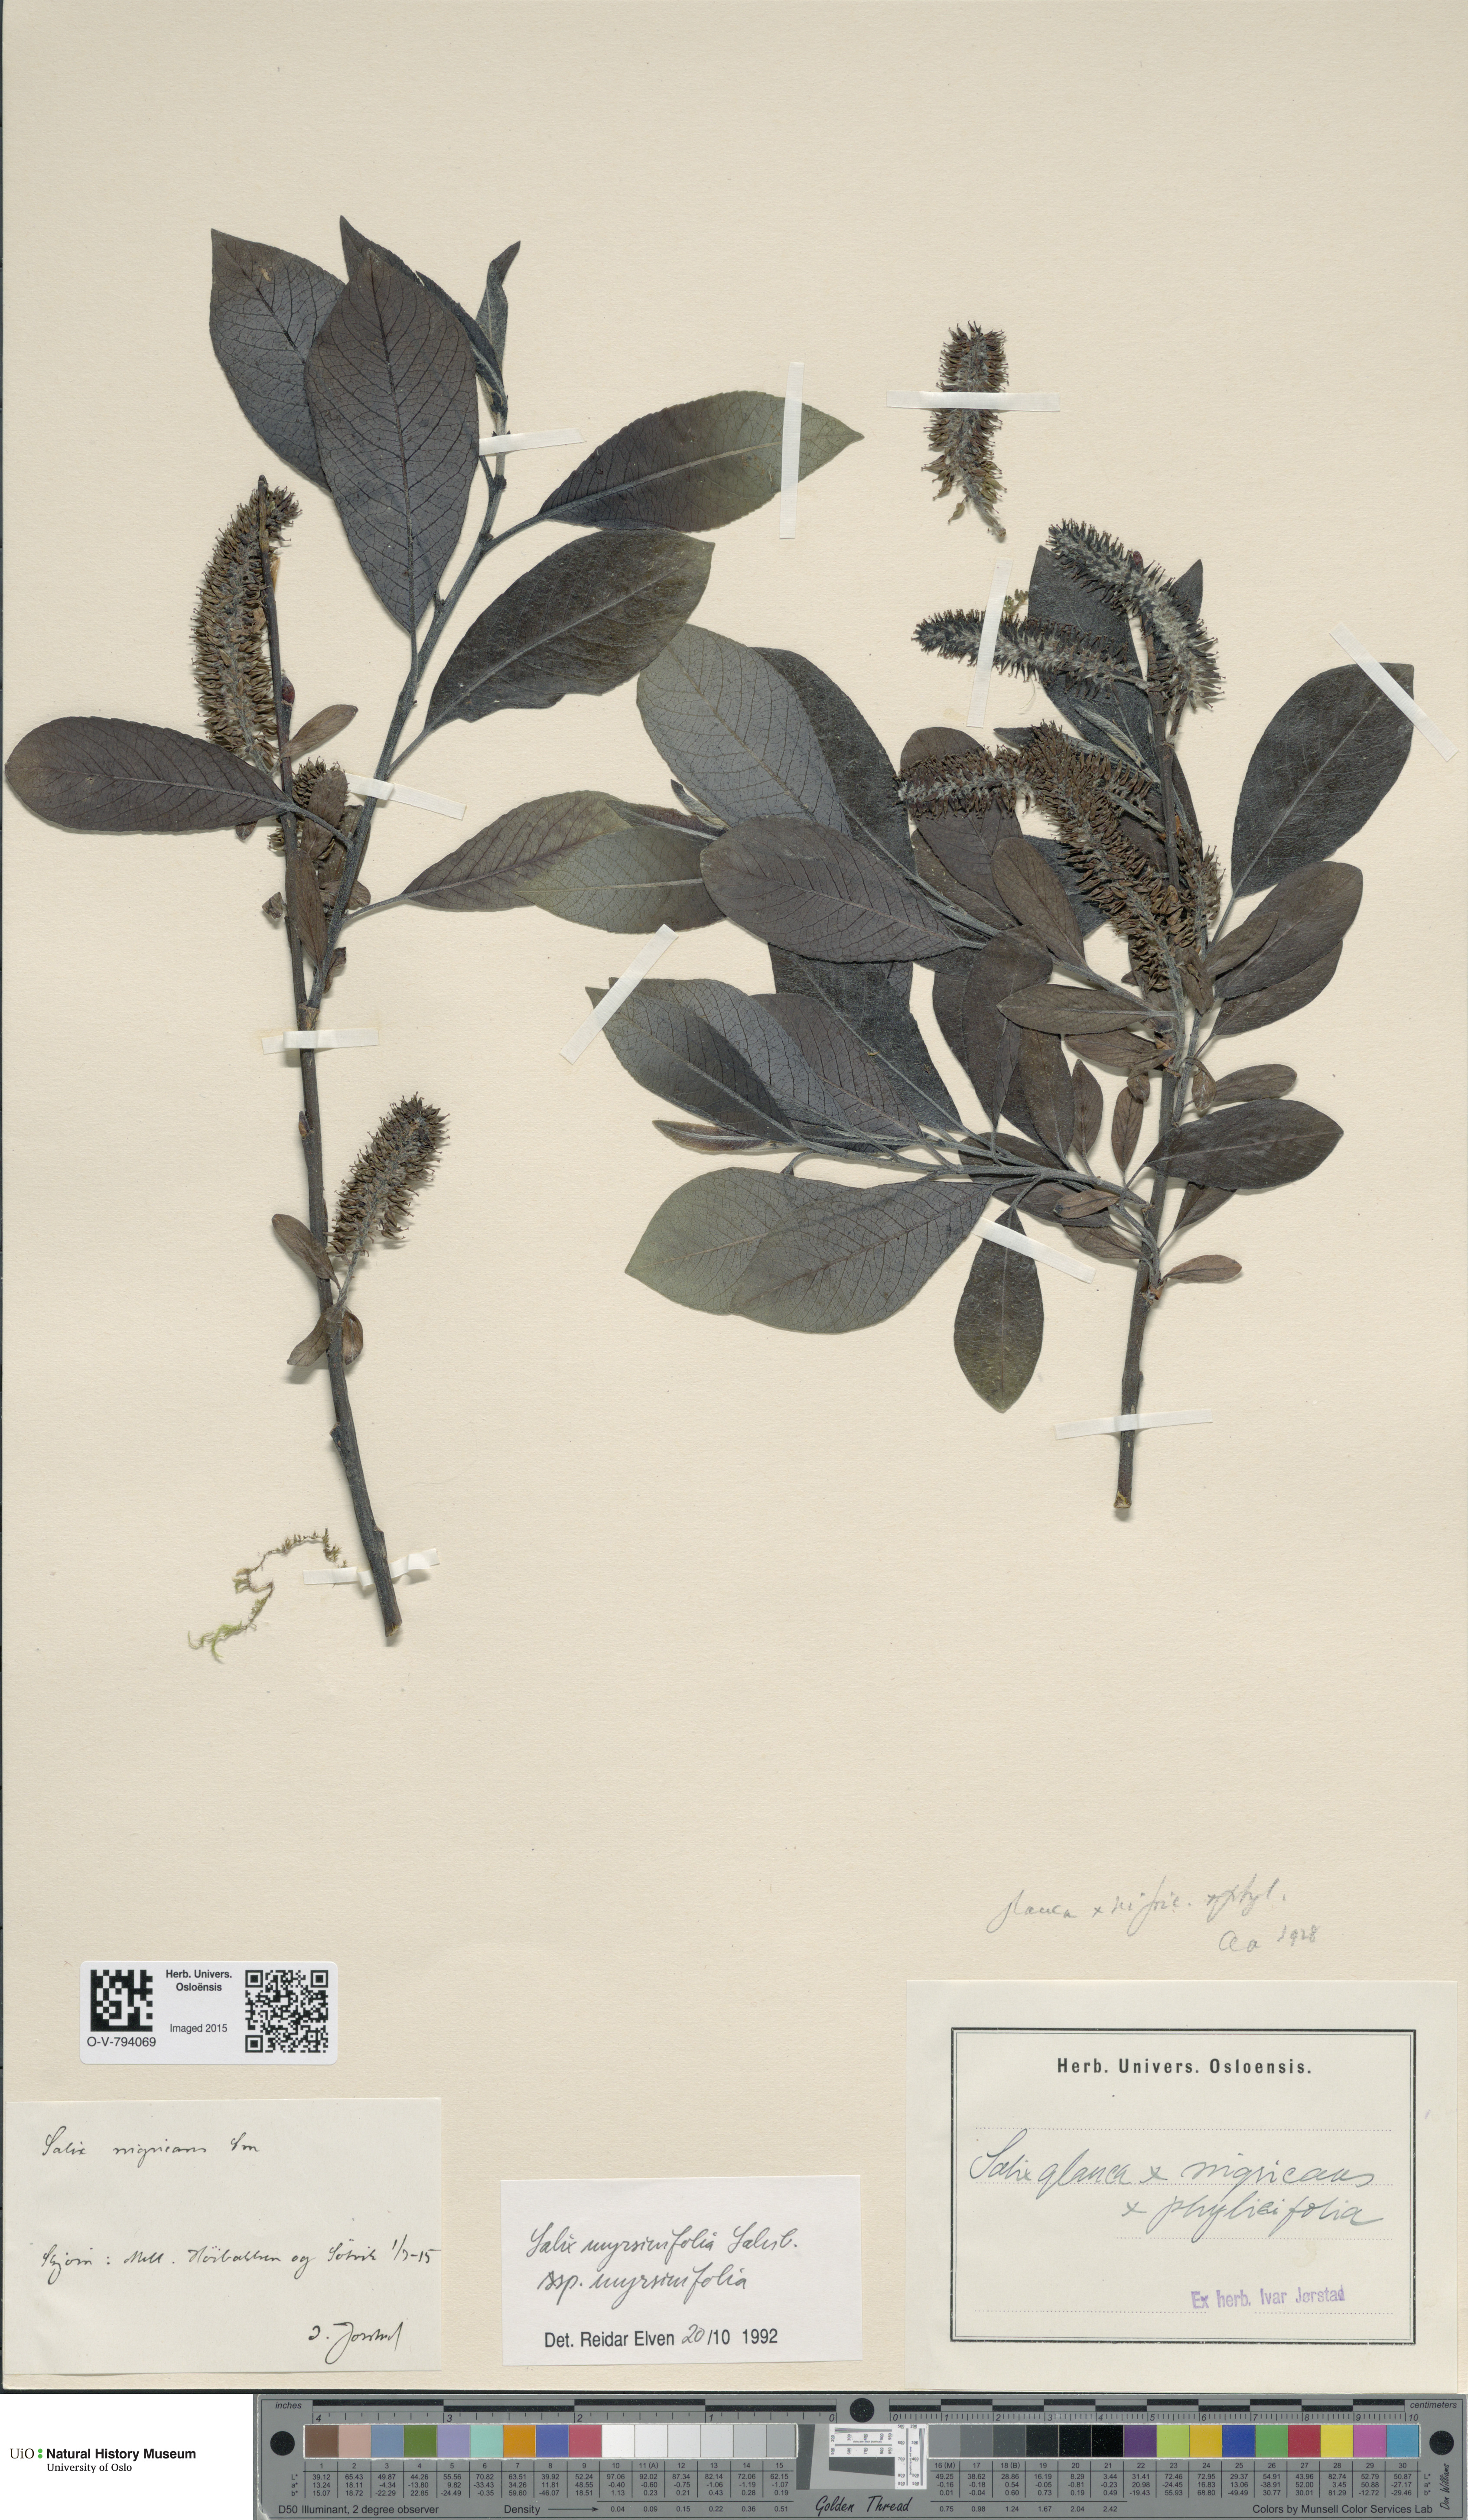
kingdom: Plantae
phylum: Tracheophyta
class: Magnoliopsida
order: Malpighiales
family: Salicaceae
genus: Salix
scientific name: Salix myrsinifolia
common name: Dark-leaved willow
